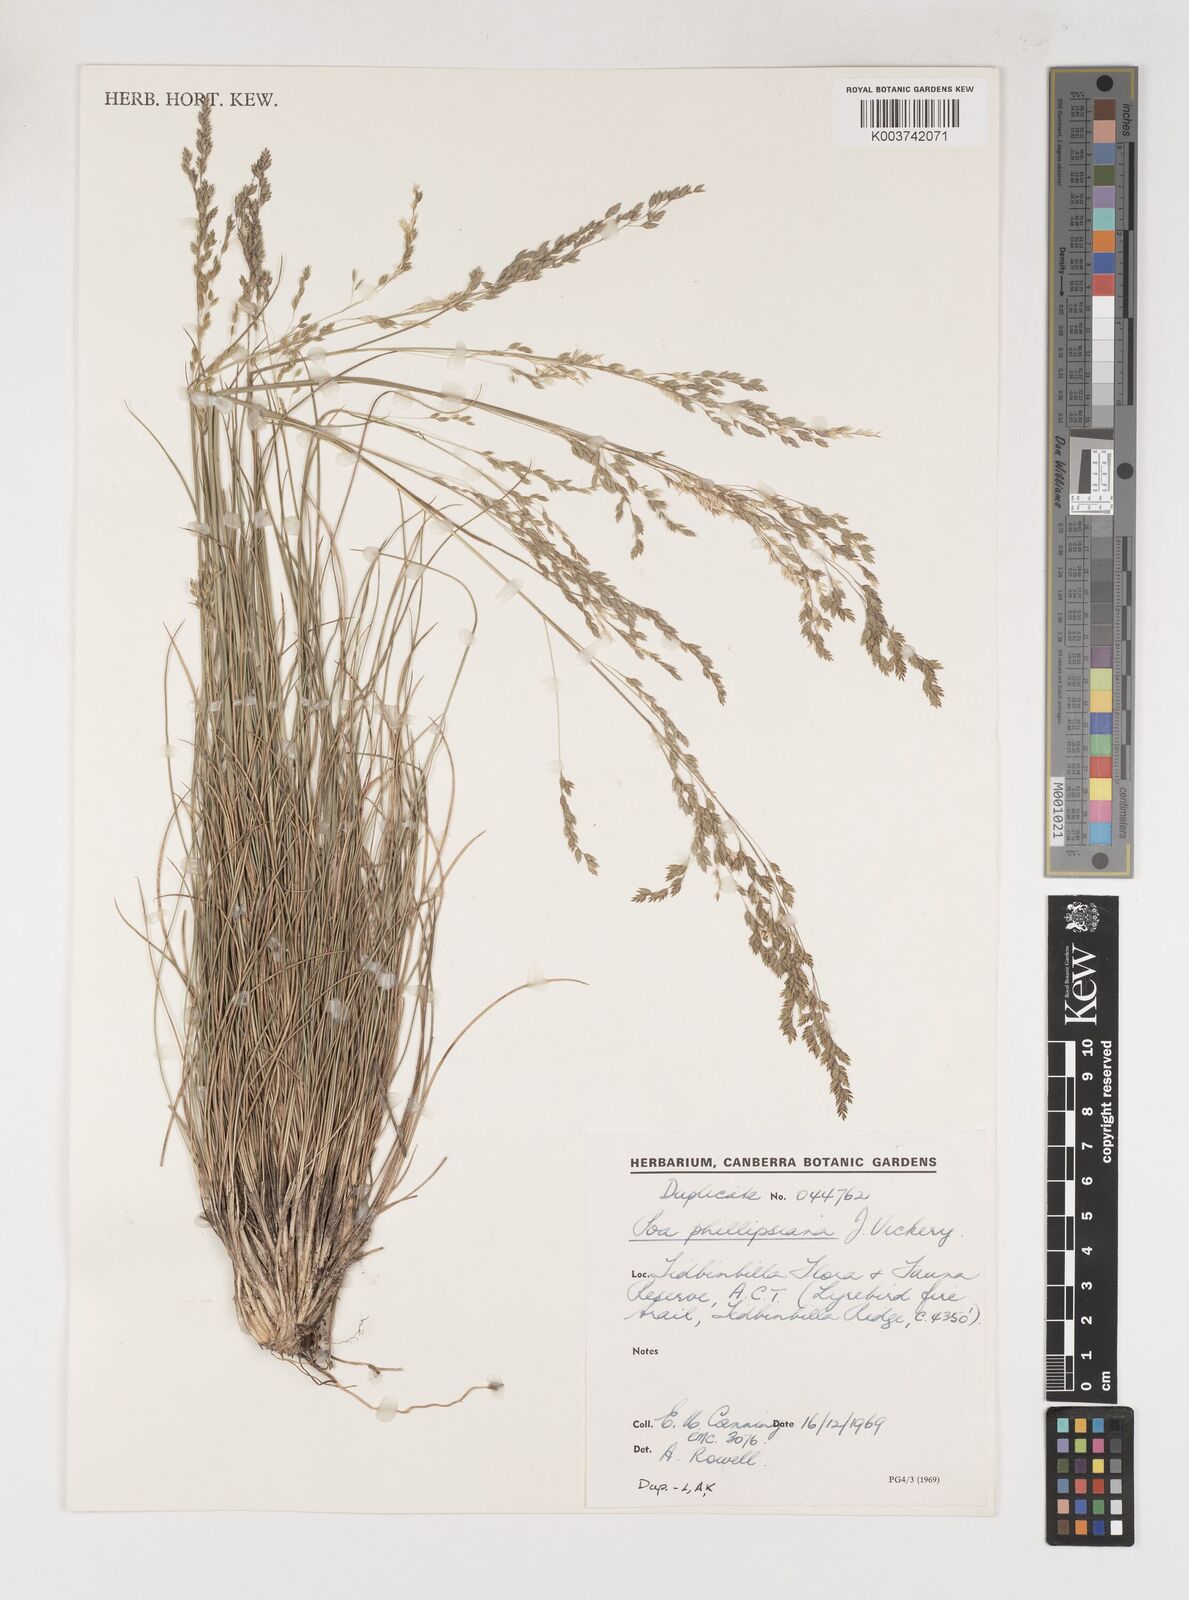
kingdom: Plantae
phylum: Tracheophyta
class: Liliopsida
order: Poales
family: Poaceae
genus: Poa
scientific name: Poa phillipsiana
